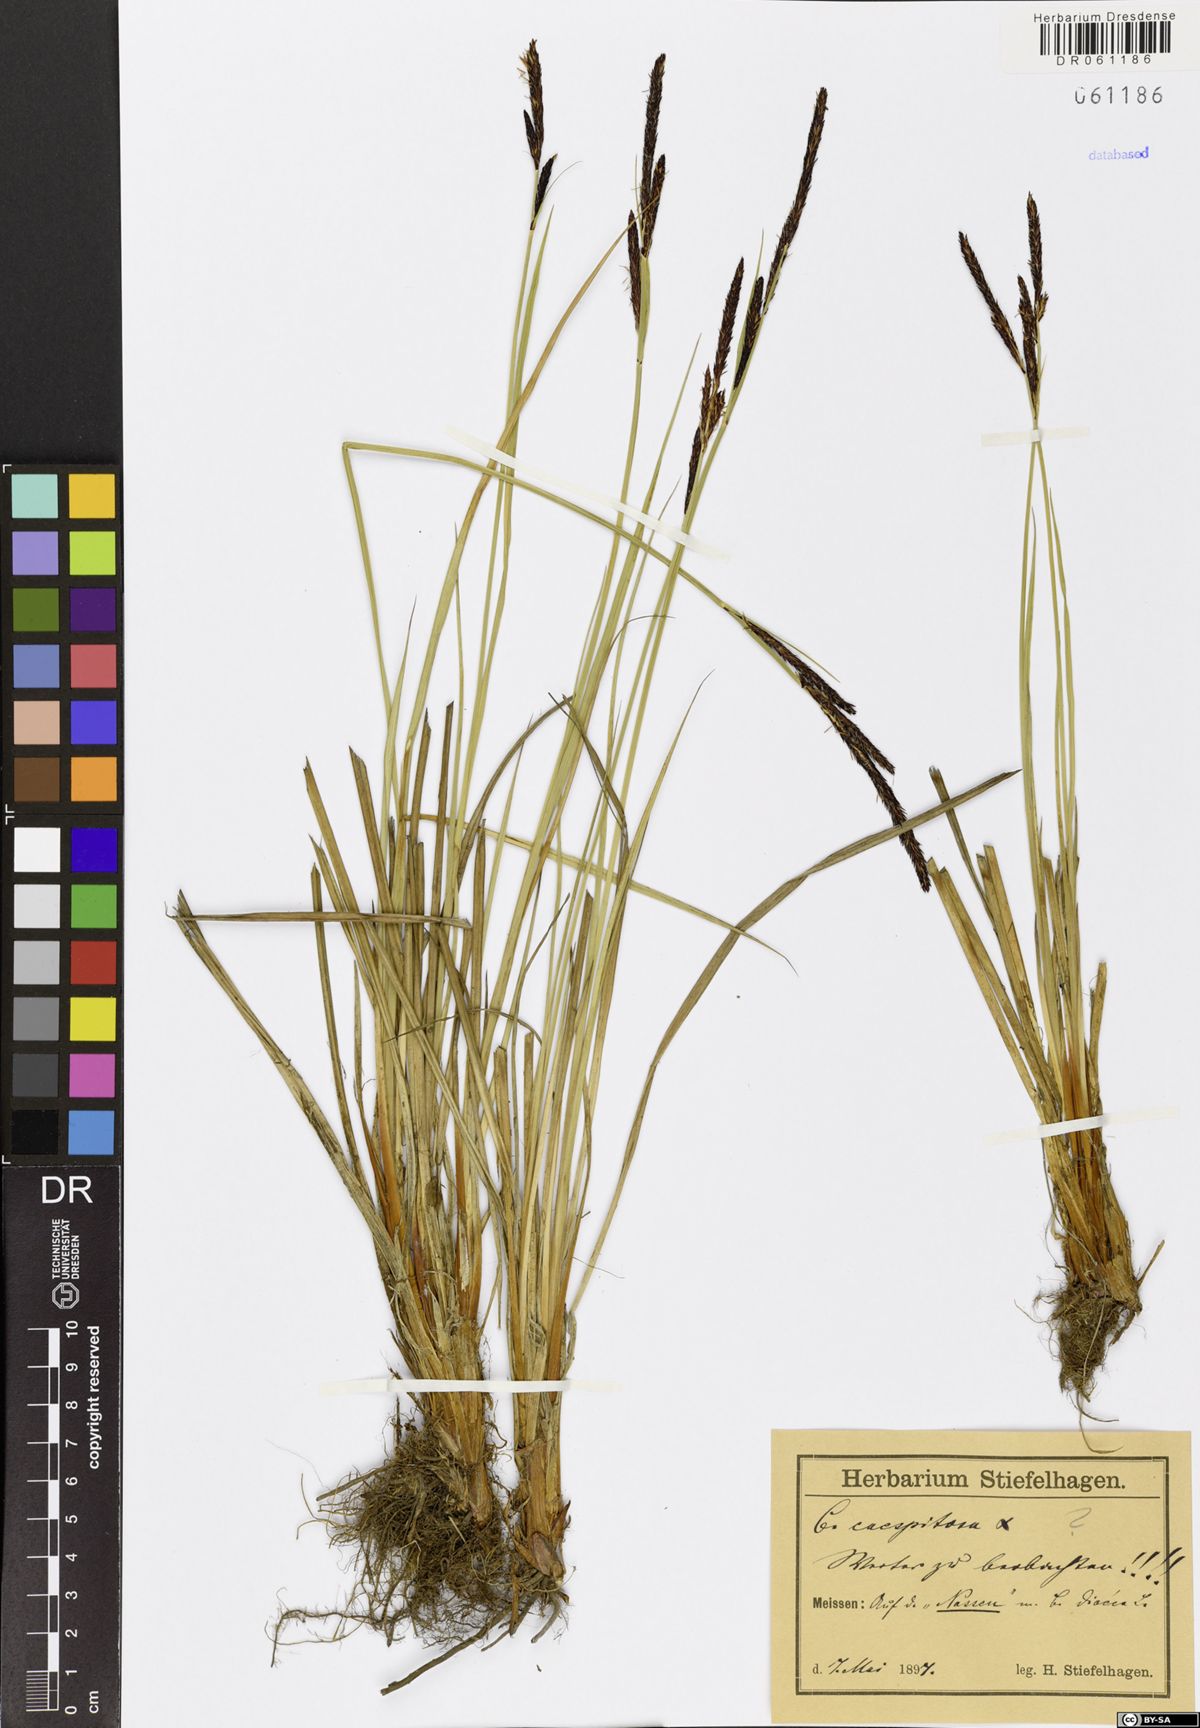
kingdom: Plantae
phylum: Tracheophyta
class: Liliopsida
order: Poales
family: Cyperaceae
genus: Carex
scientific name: Carex cespitosa
